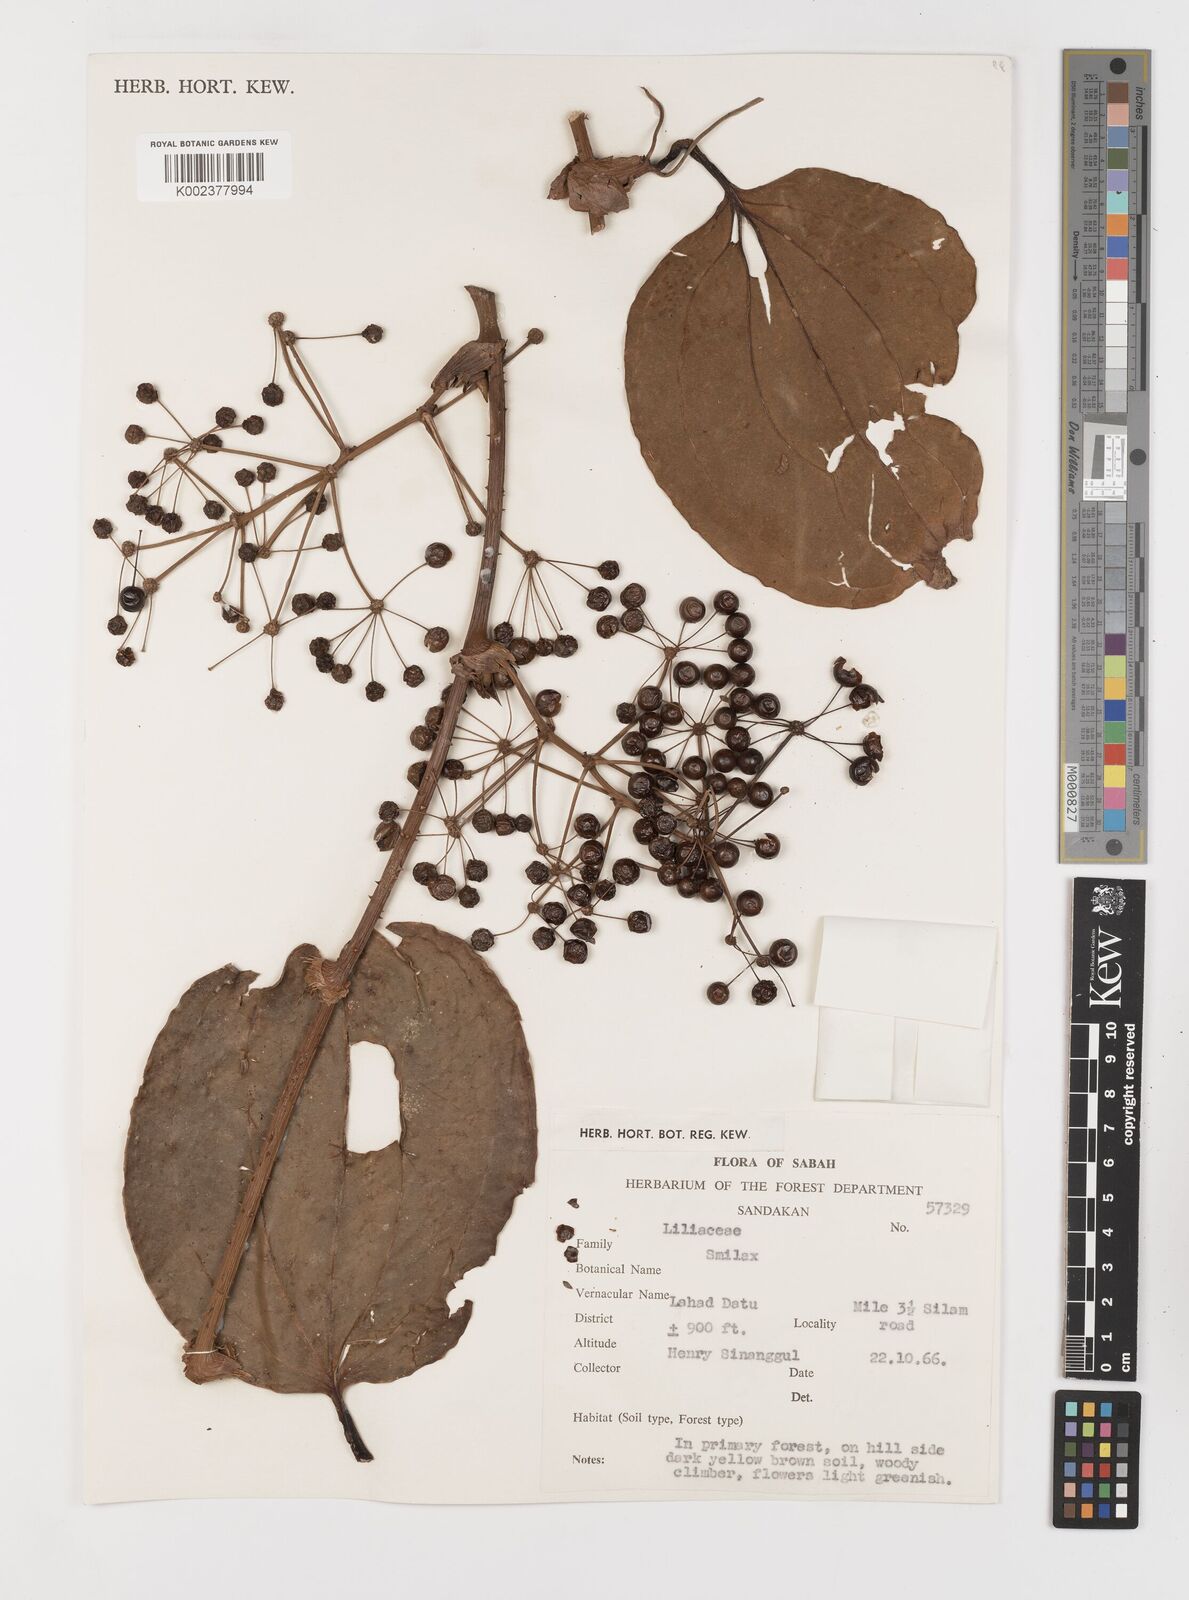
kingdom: Plantae
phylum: Tracheophyta
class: Liliopsida
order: Liliales
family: Smilacaceae
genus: Smilax
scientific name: Smilax
